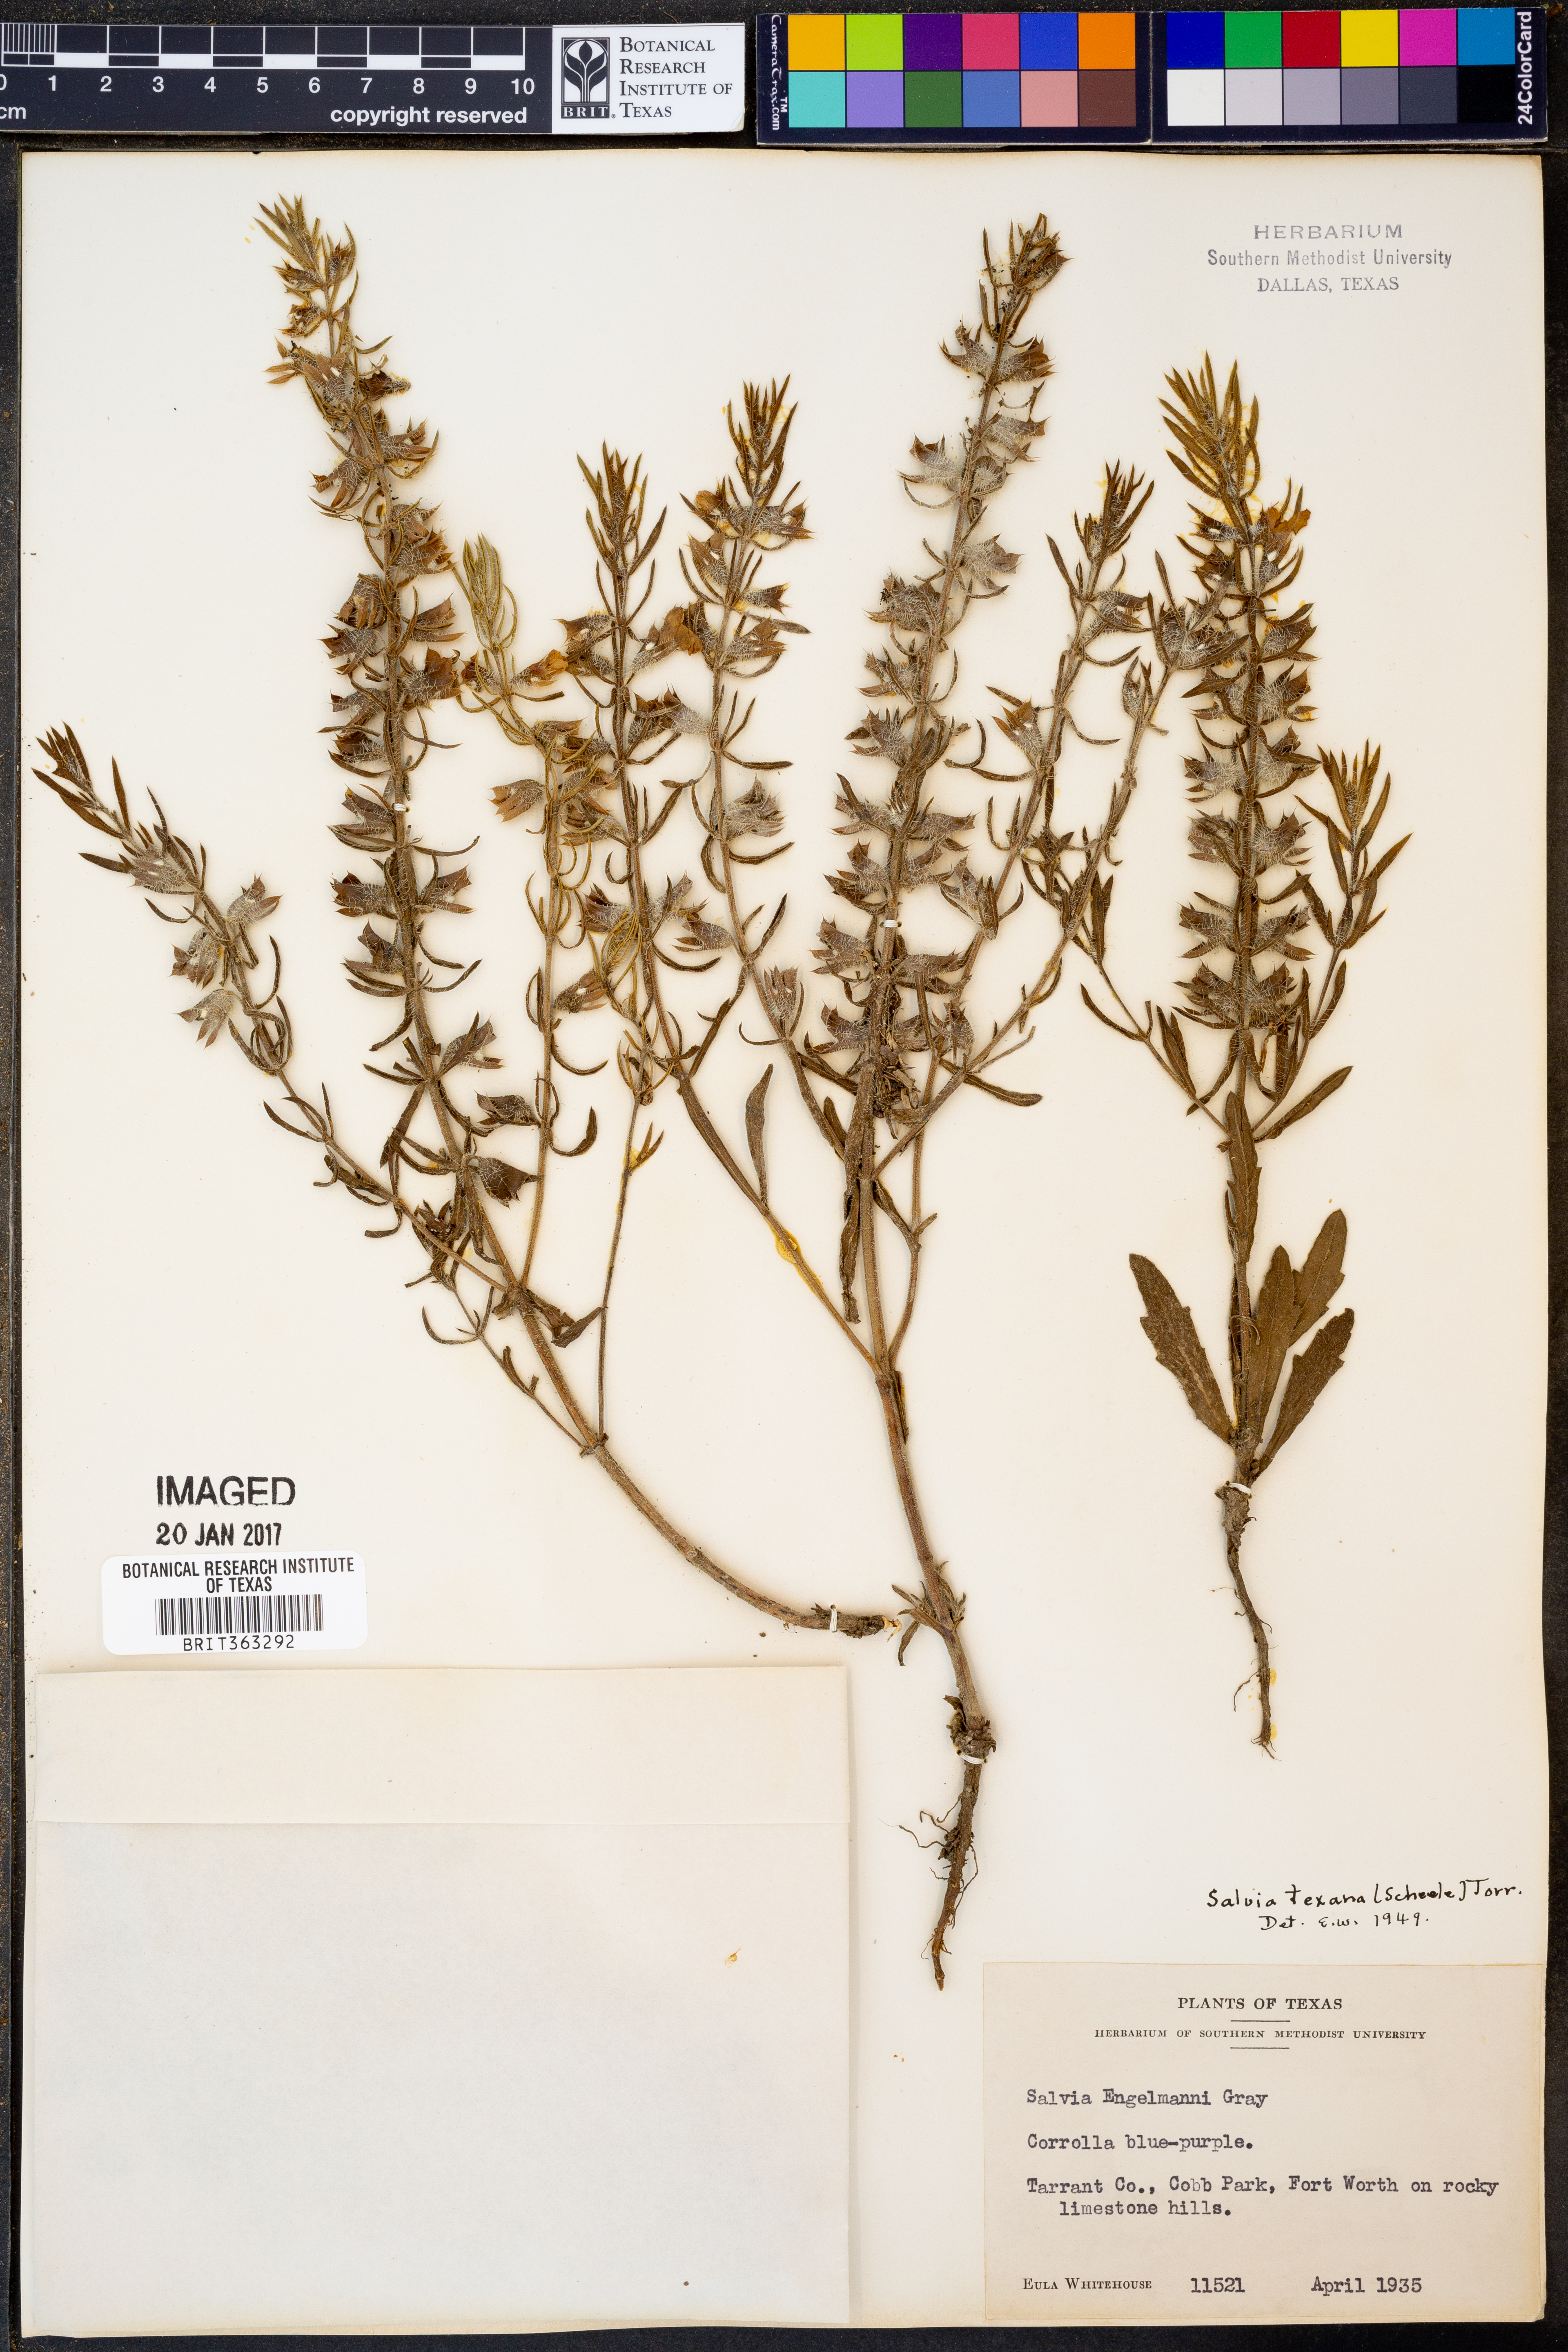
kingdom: Plantae
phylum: Tracheophyta
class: Magnoliopsida
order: Lamiales
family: Lamiaceae
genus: Salvia
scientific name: Salvia texana
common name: Texas sage
